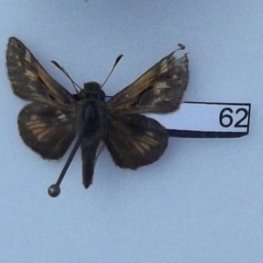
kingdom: Animalia
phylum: Arthropoda
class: Insecta
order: Lepidoptera
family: Hesperiidae
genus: Polites
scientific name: Polites coras
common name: Peck's Skipper
